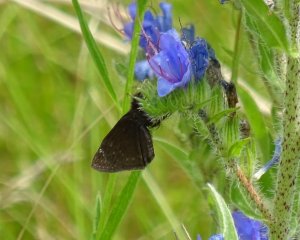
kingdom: Animalia
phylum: Arthropoda
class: Insecta
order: Lepidoptera
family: Hesperiidae
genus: Gesta
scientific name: Gesta
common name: Columbine Duskywing
